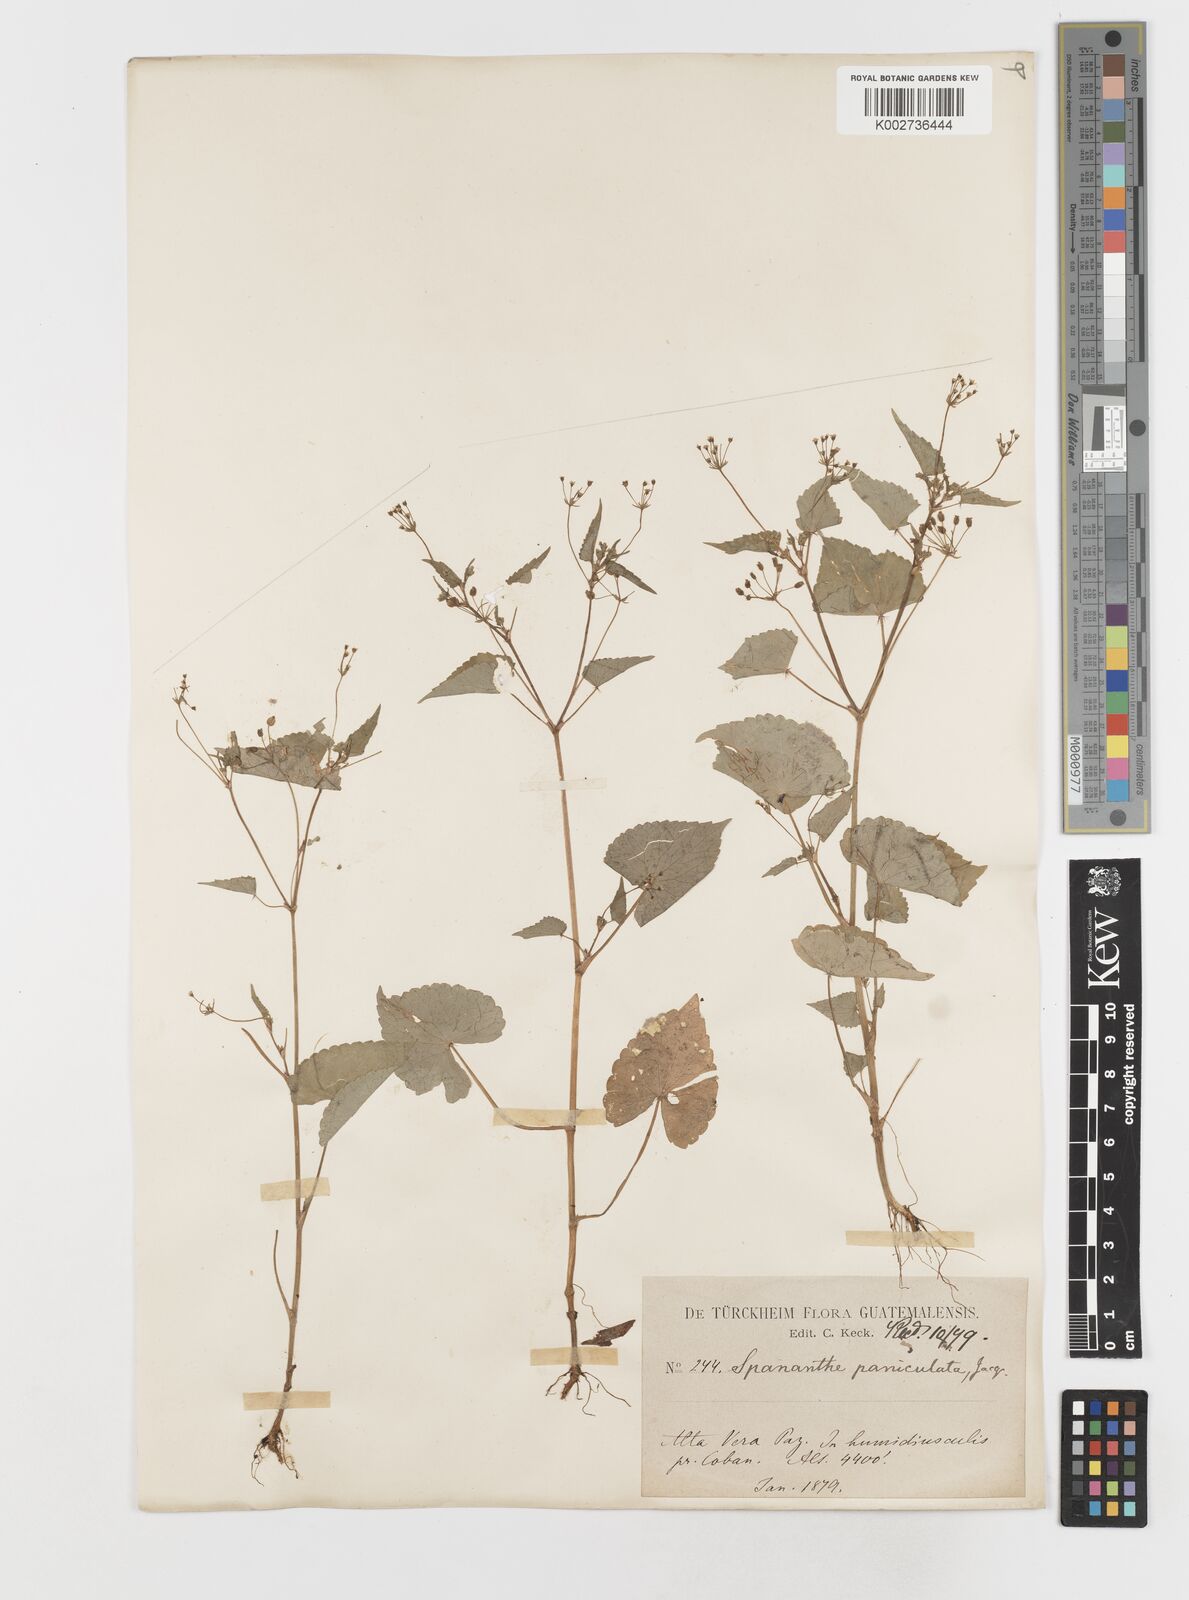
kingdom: Plantae
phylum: Tracheophyta
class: Magnoliopsida
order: Apiales
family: Apiaceae
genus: Spananthe
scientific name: Spananthe paniculata
